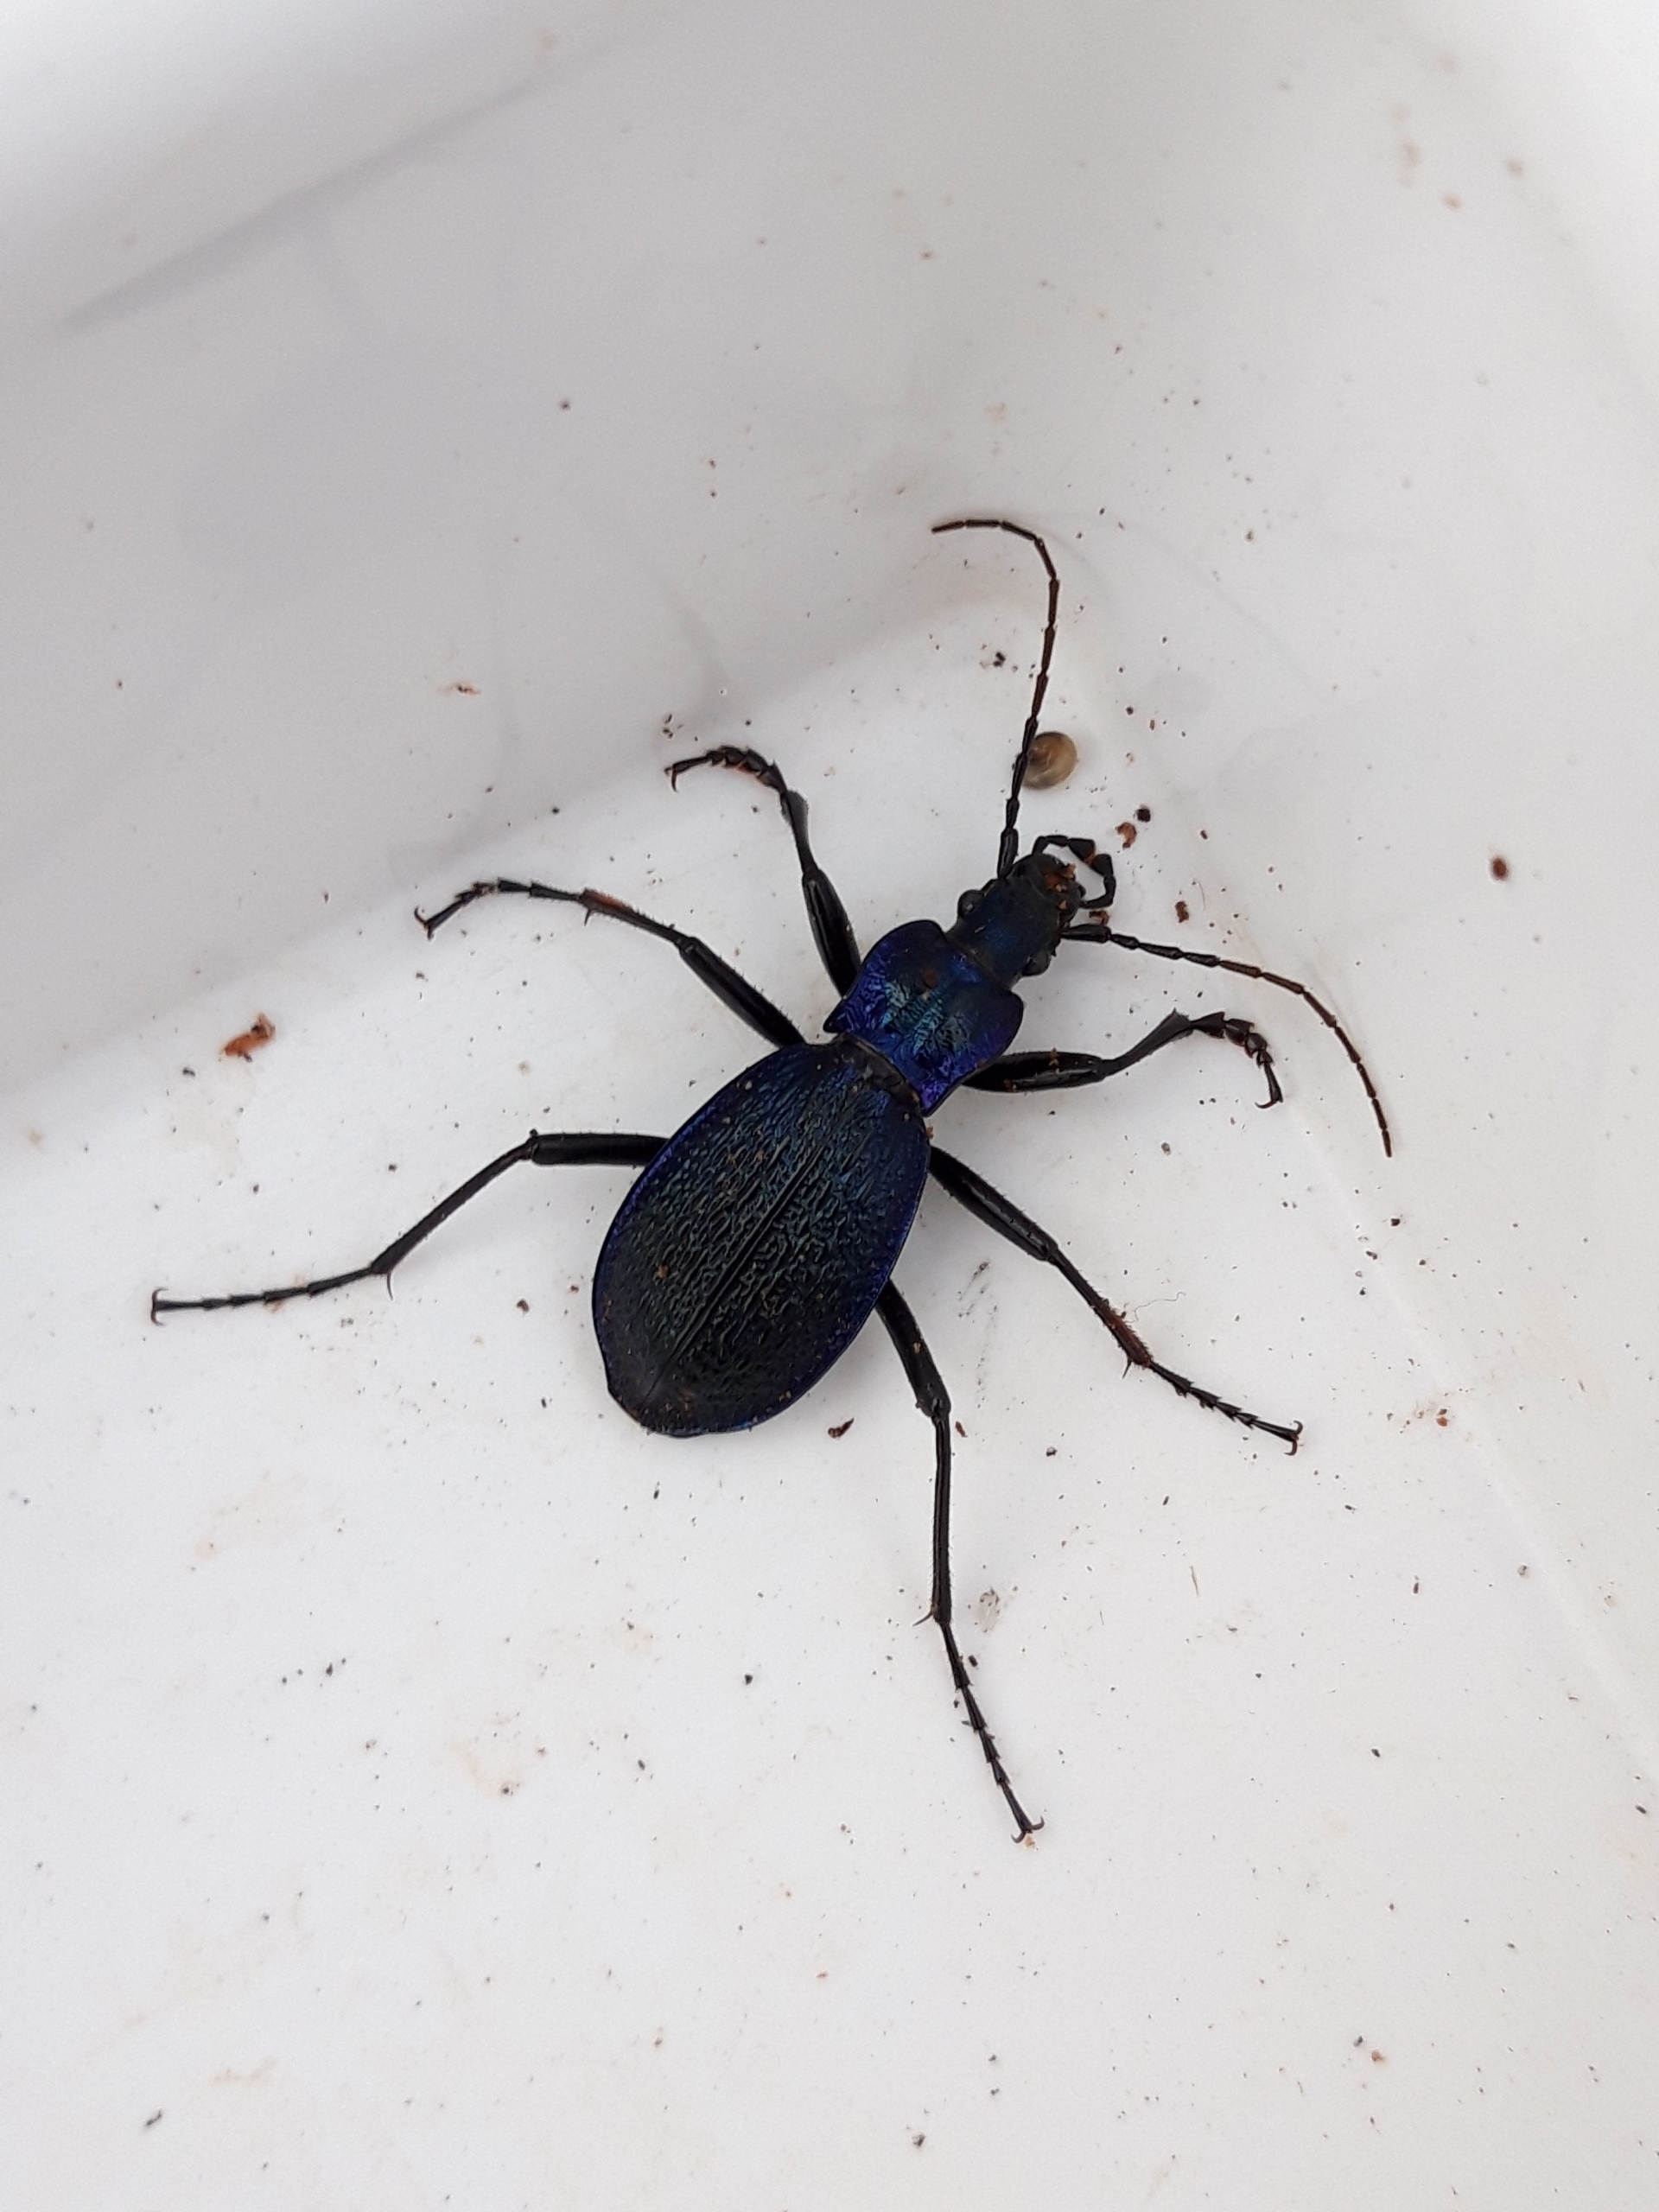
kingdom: Animalia
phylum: Arthropoda
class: Insecta
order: Coleoptera
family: Carabidae
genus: Carabus
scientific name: Carabus intricatus
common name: Bøgeløber
